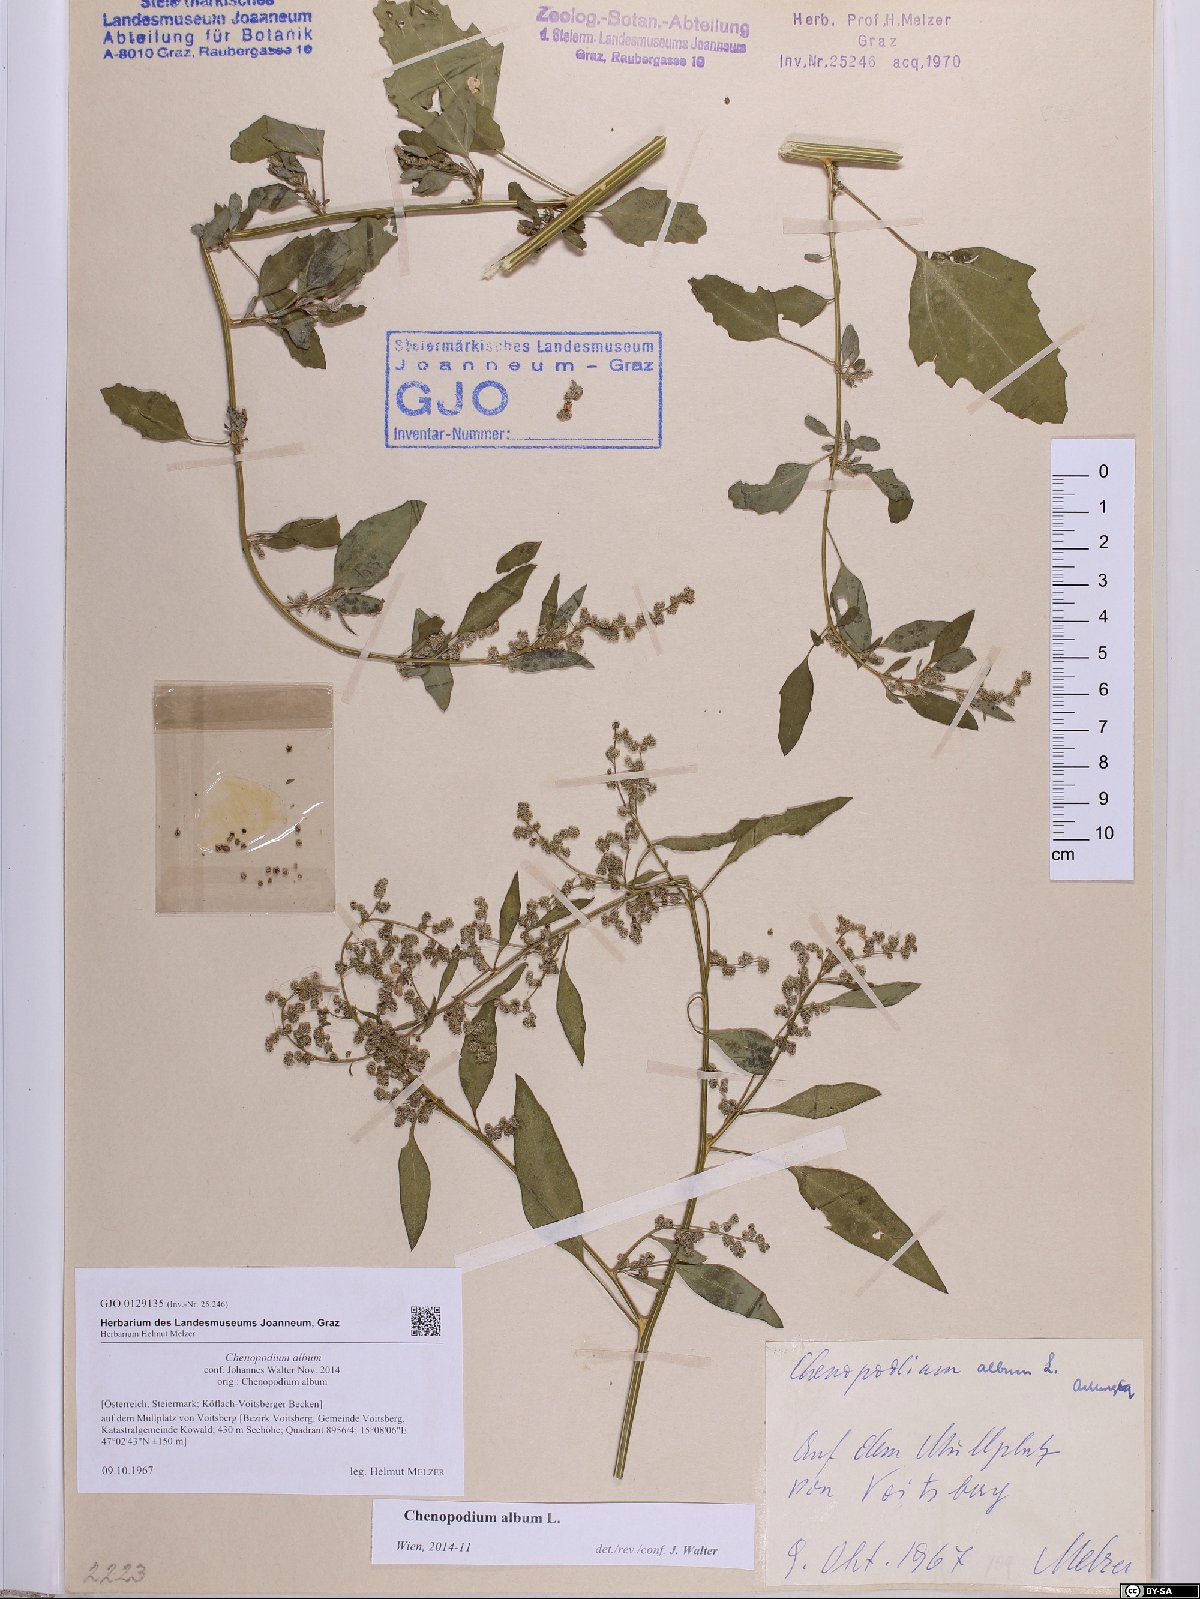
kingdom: Plantae
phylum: Tracheophyta
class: Magnoliopsida
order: Caryophyllales
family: Amaranthaceae
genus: Chenopodium
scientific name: Chenopodium album
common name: Fat-hen
